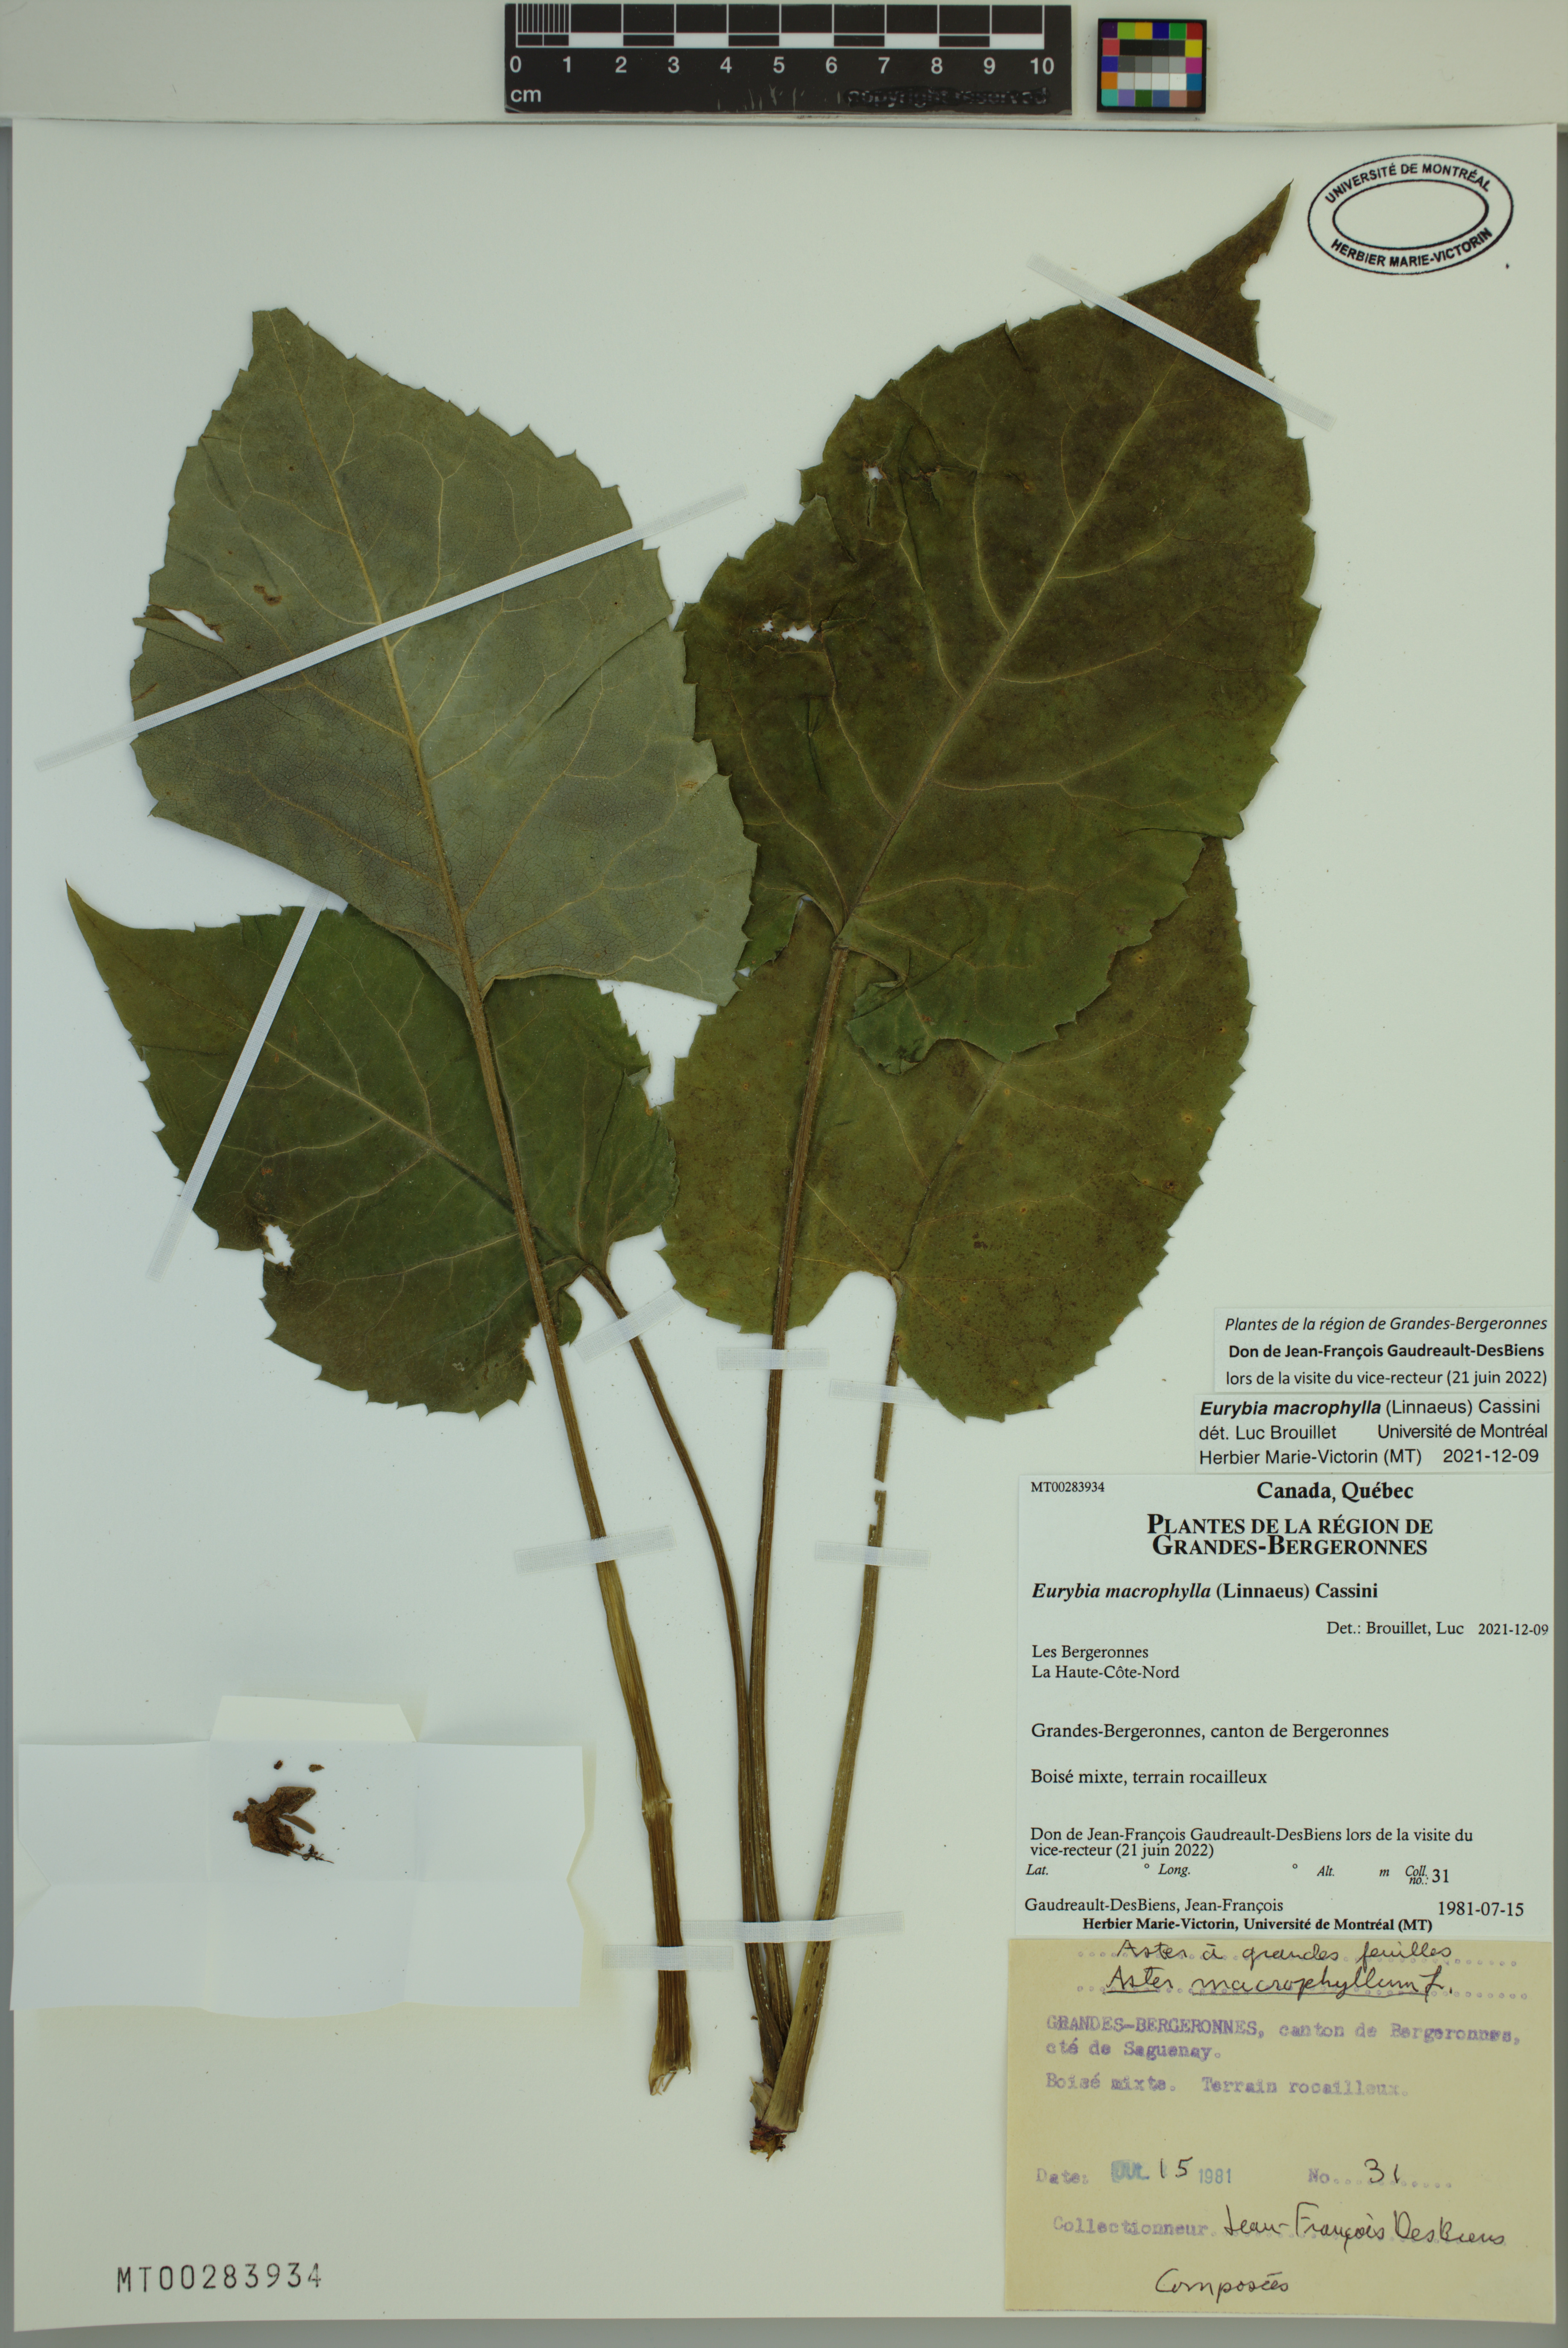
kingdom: Plantae
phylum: Tracheophyta
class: Magnoliopsida
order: Asterales
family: Asteraceae
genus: Eurybia
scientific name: Eurybia macrophylla
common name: Big-leaved aster
